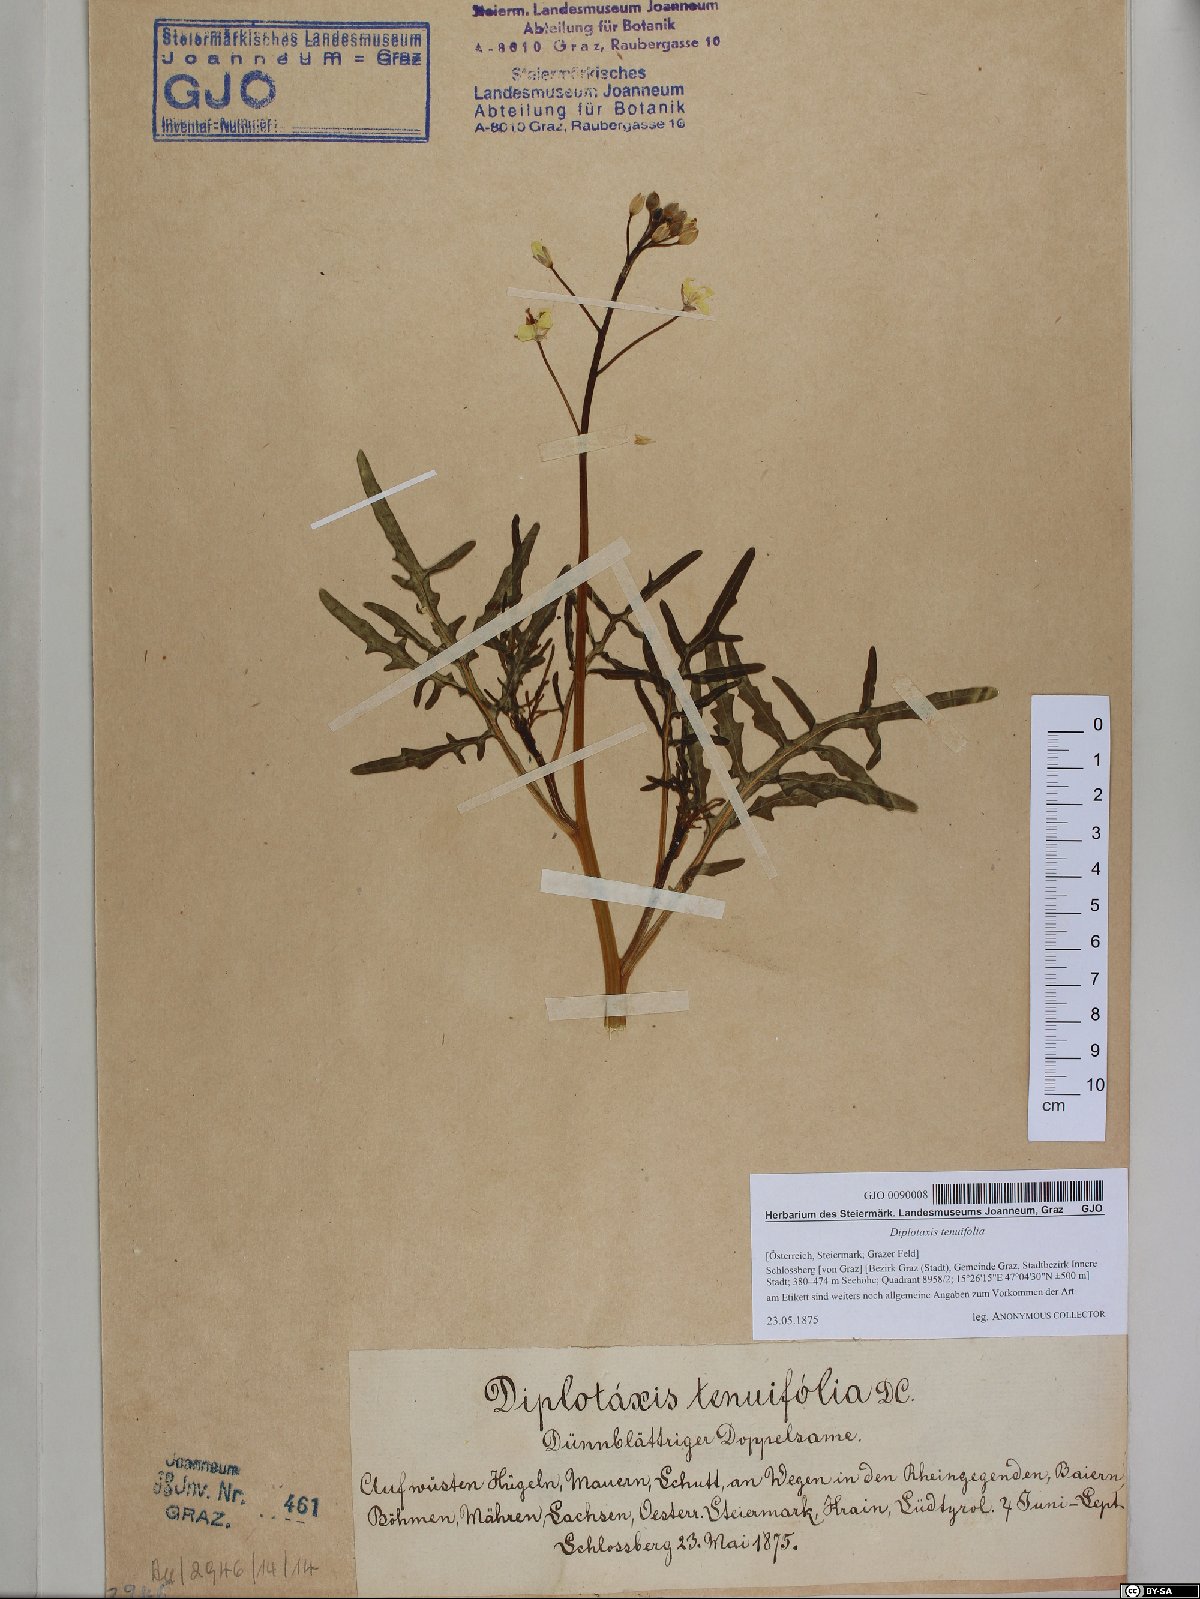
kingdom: Plantae
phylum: Tracheophyta
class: Magnoliopsida
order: Brassicales
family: Brassicaceae
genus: Diplotaxis
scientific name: Diplotaxis tenuifolia
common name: Perennial wall-rocket
